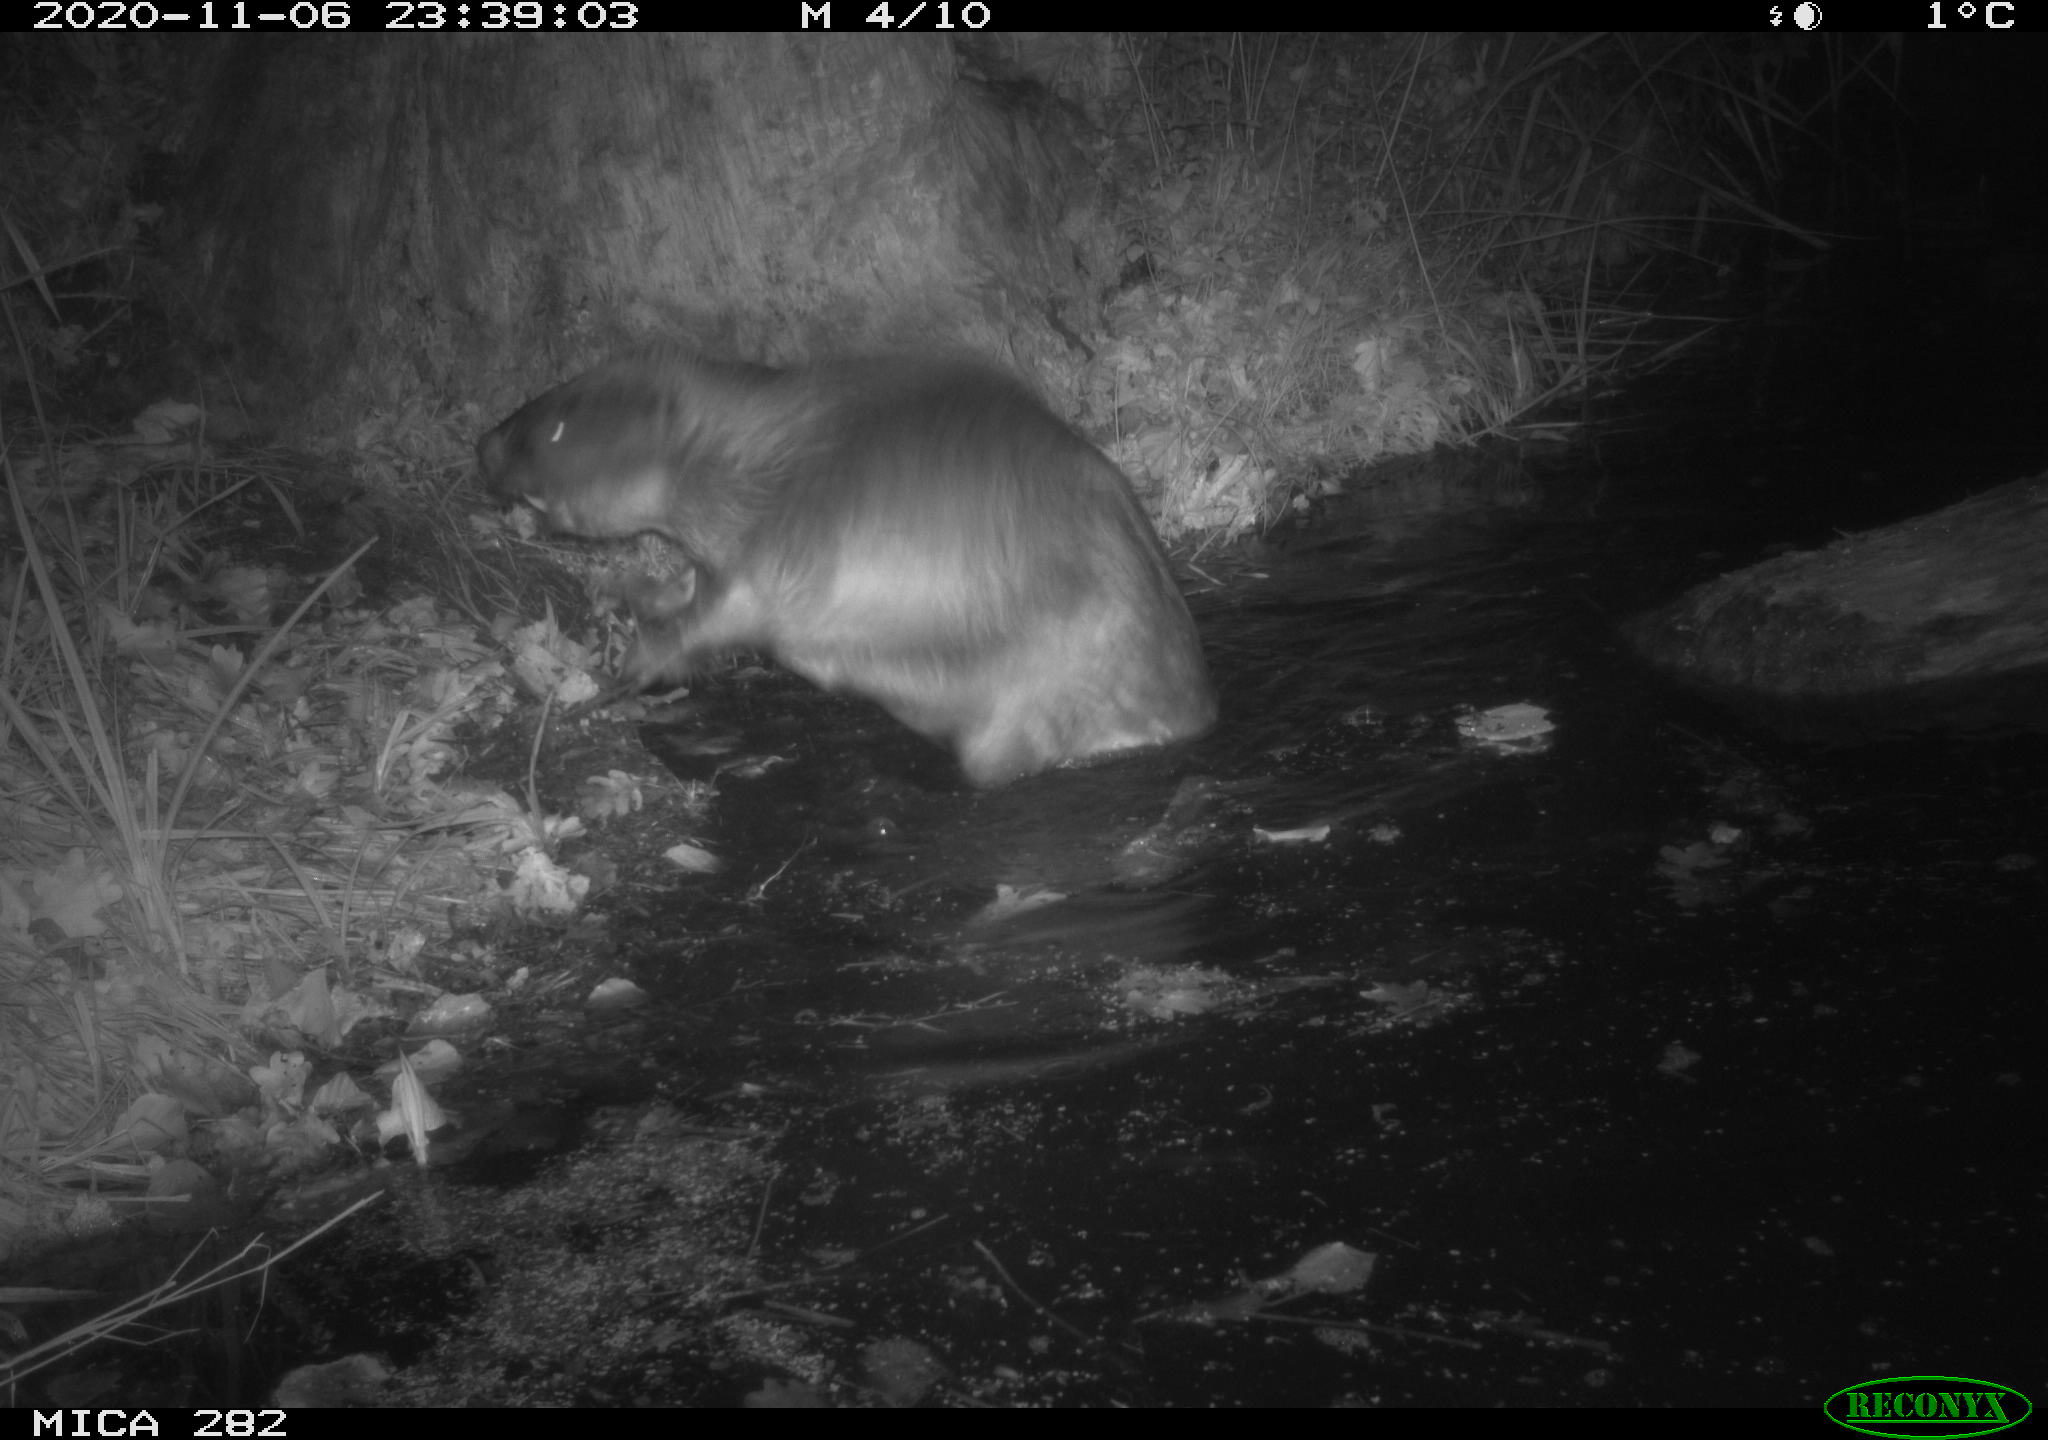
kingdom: Animalia
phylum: Chordata
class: Mammalia
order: Rodentia
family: Castoridae
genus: Castor
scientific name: Castor fiber
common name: Eurasian beaver
